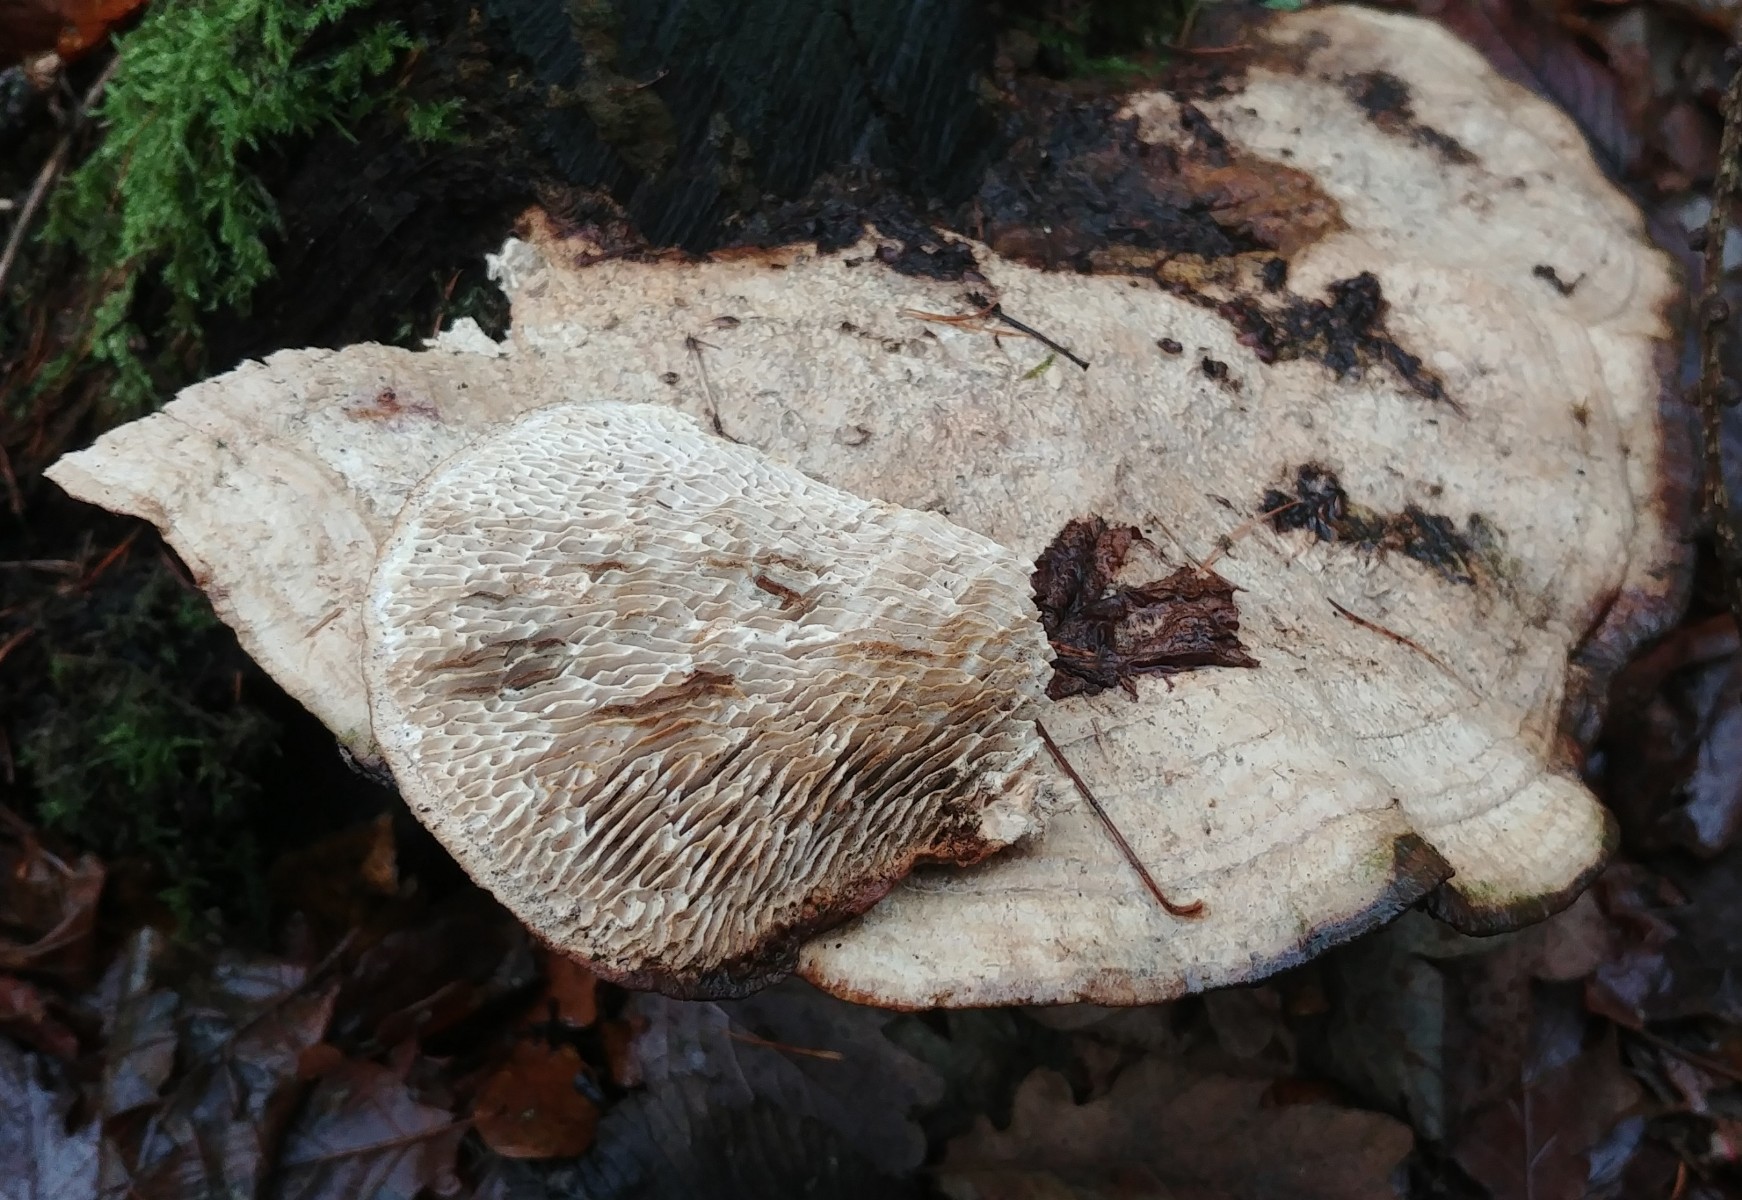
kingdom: Fungi
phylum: Basidiomycota
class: Agaricomycetes
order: Polyporales
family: Fomitopsidaceae
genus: Daedalea
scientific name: Daedalea quercina
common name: ege-labyrintsvamp
